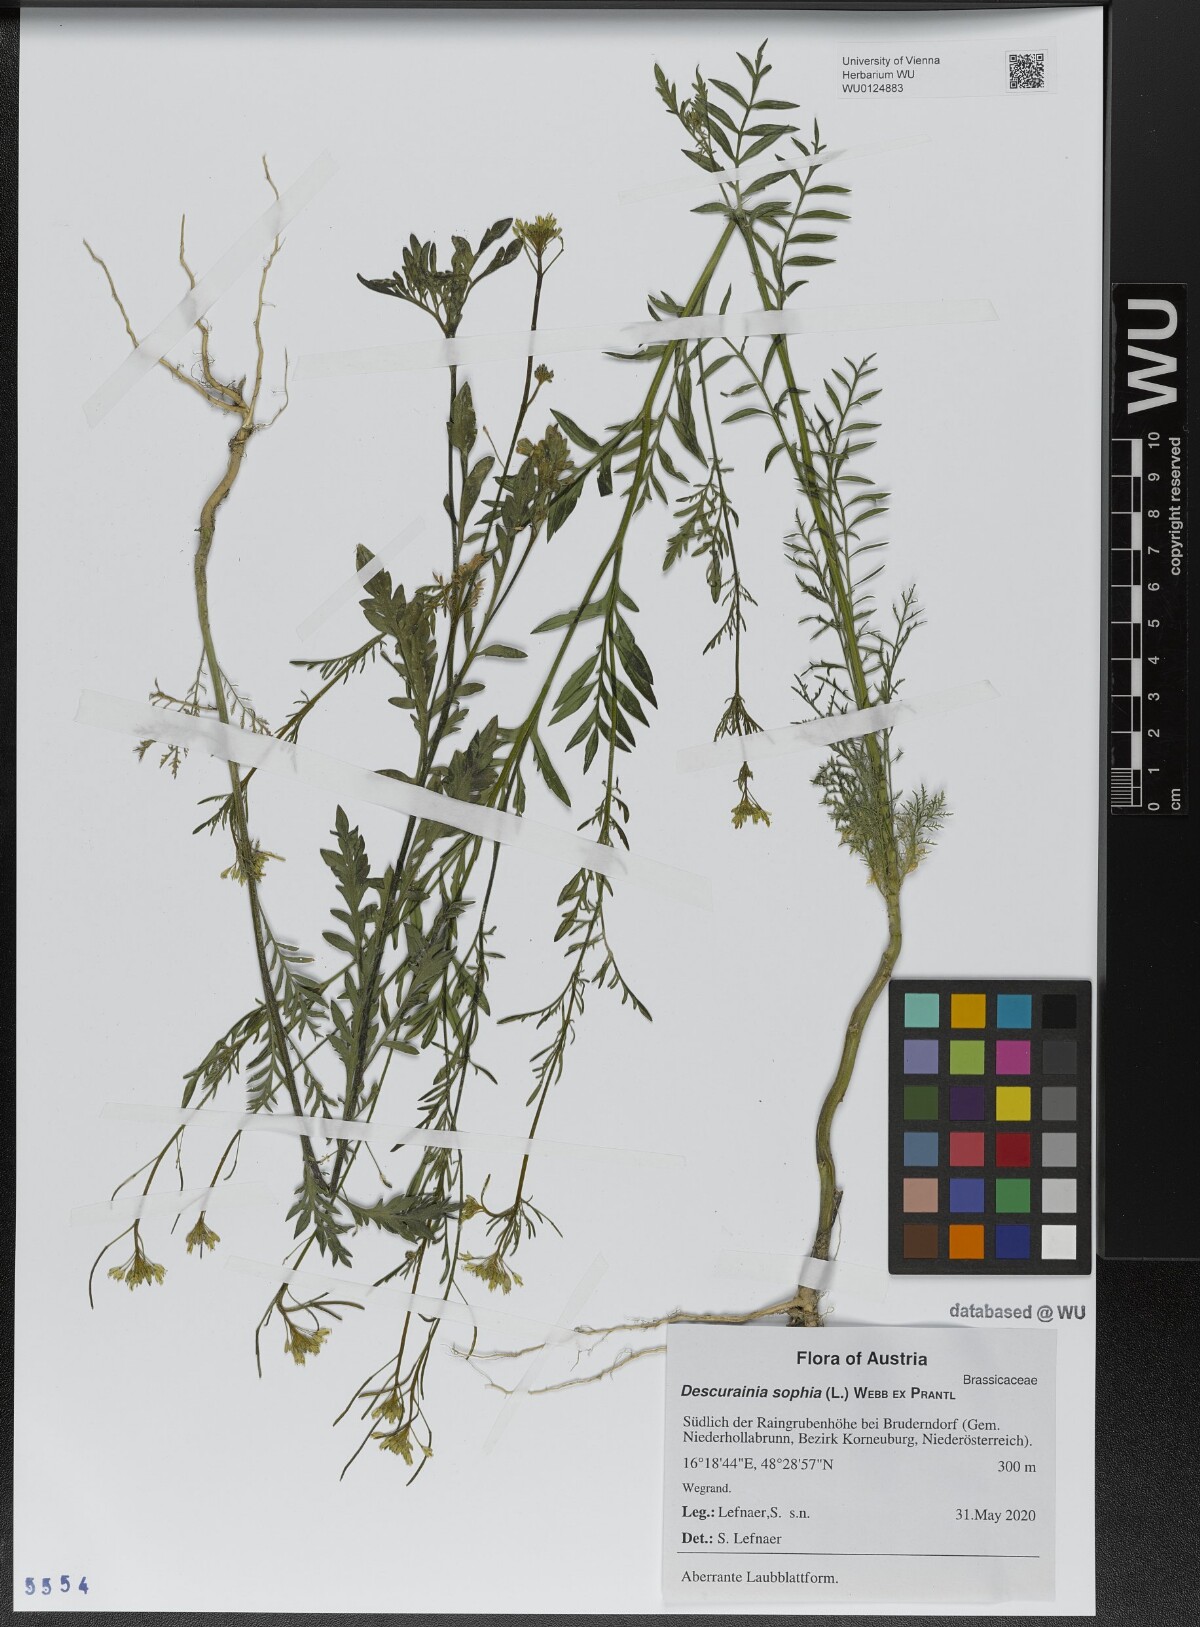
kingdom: Plantae
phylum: Tracheophyta
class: Magnoliopsida
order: Brassicales
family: Brassicaceae
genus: Descurainia
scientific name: Descurainia sophia
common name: Flixweed
